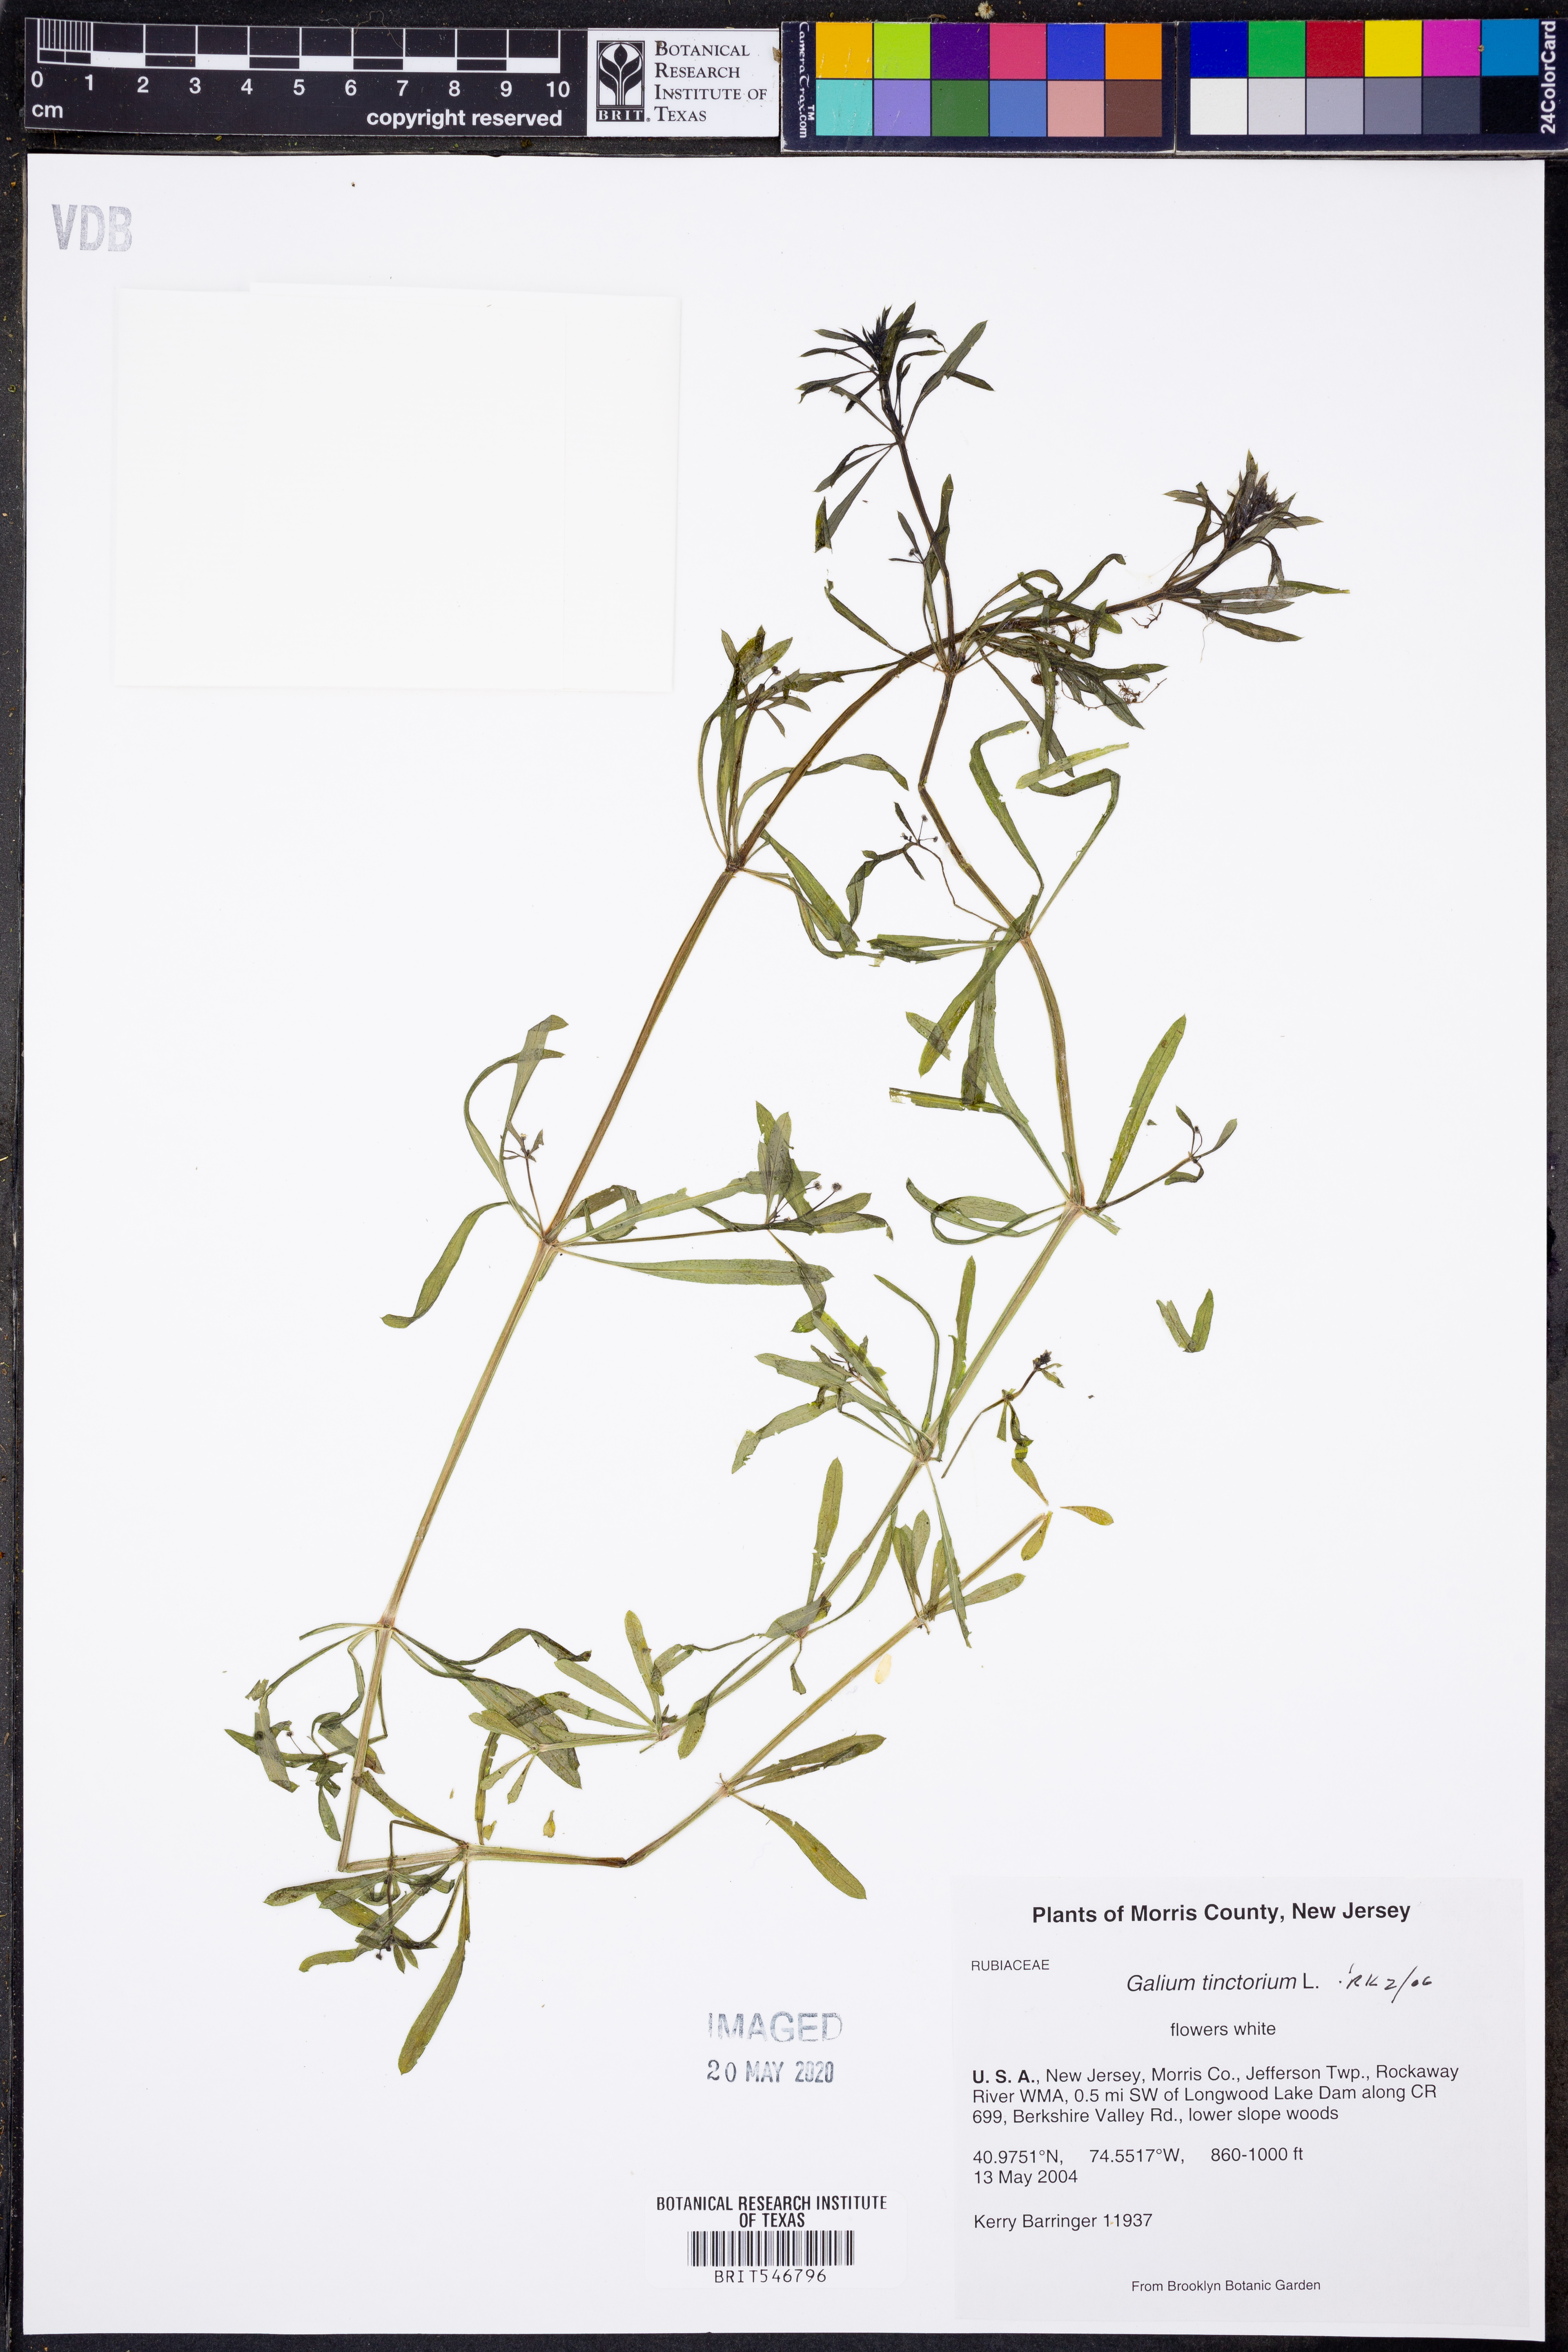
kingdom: Plantae
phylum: Tracheophyta
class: Magnoliopsida
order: Gentianales
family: Rubiaceae
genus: Asperula
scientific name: Asperula tinctoria
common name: Dyer's woodruff
